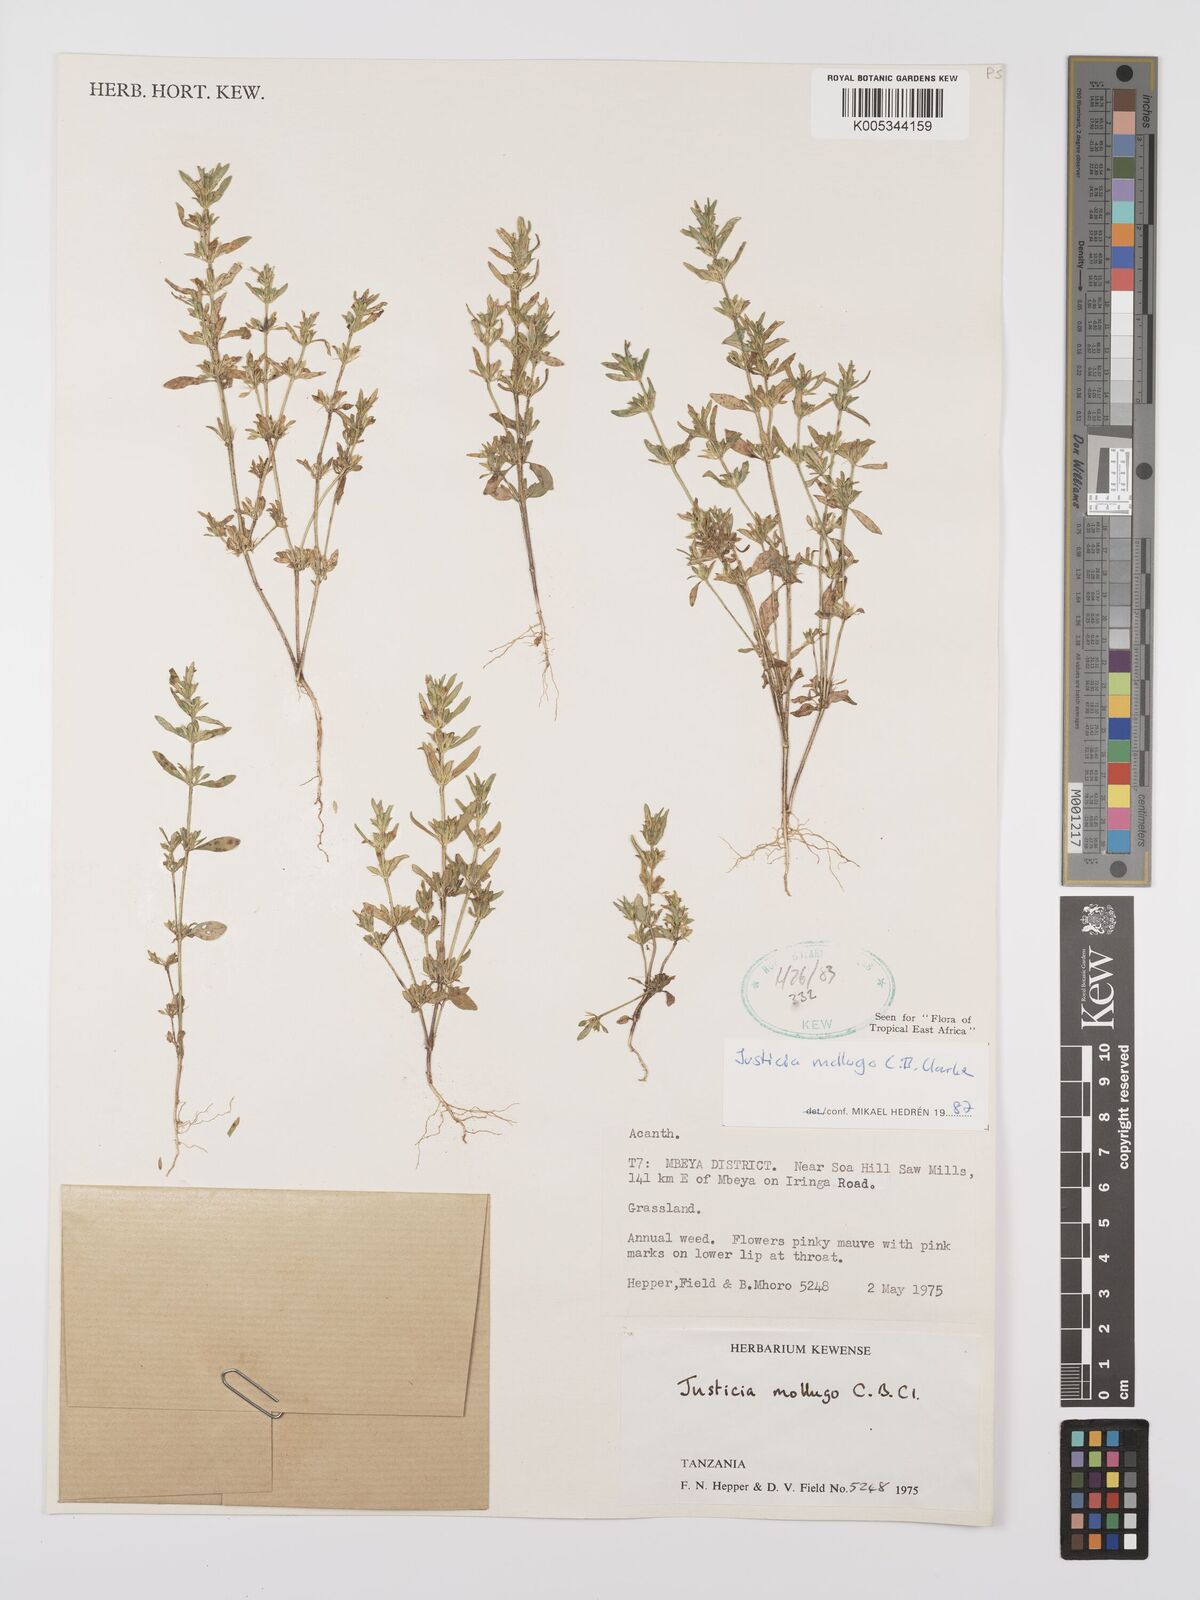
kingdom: Plantae
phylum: Tracheophyta
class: Magnoliopsida
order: Lamiales
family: Acanthaceae
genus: Justicia
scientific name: Justicia mollugo
